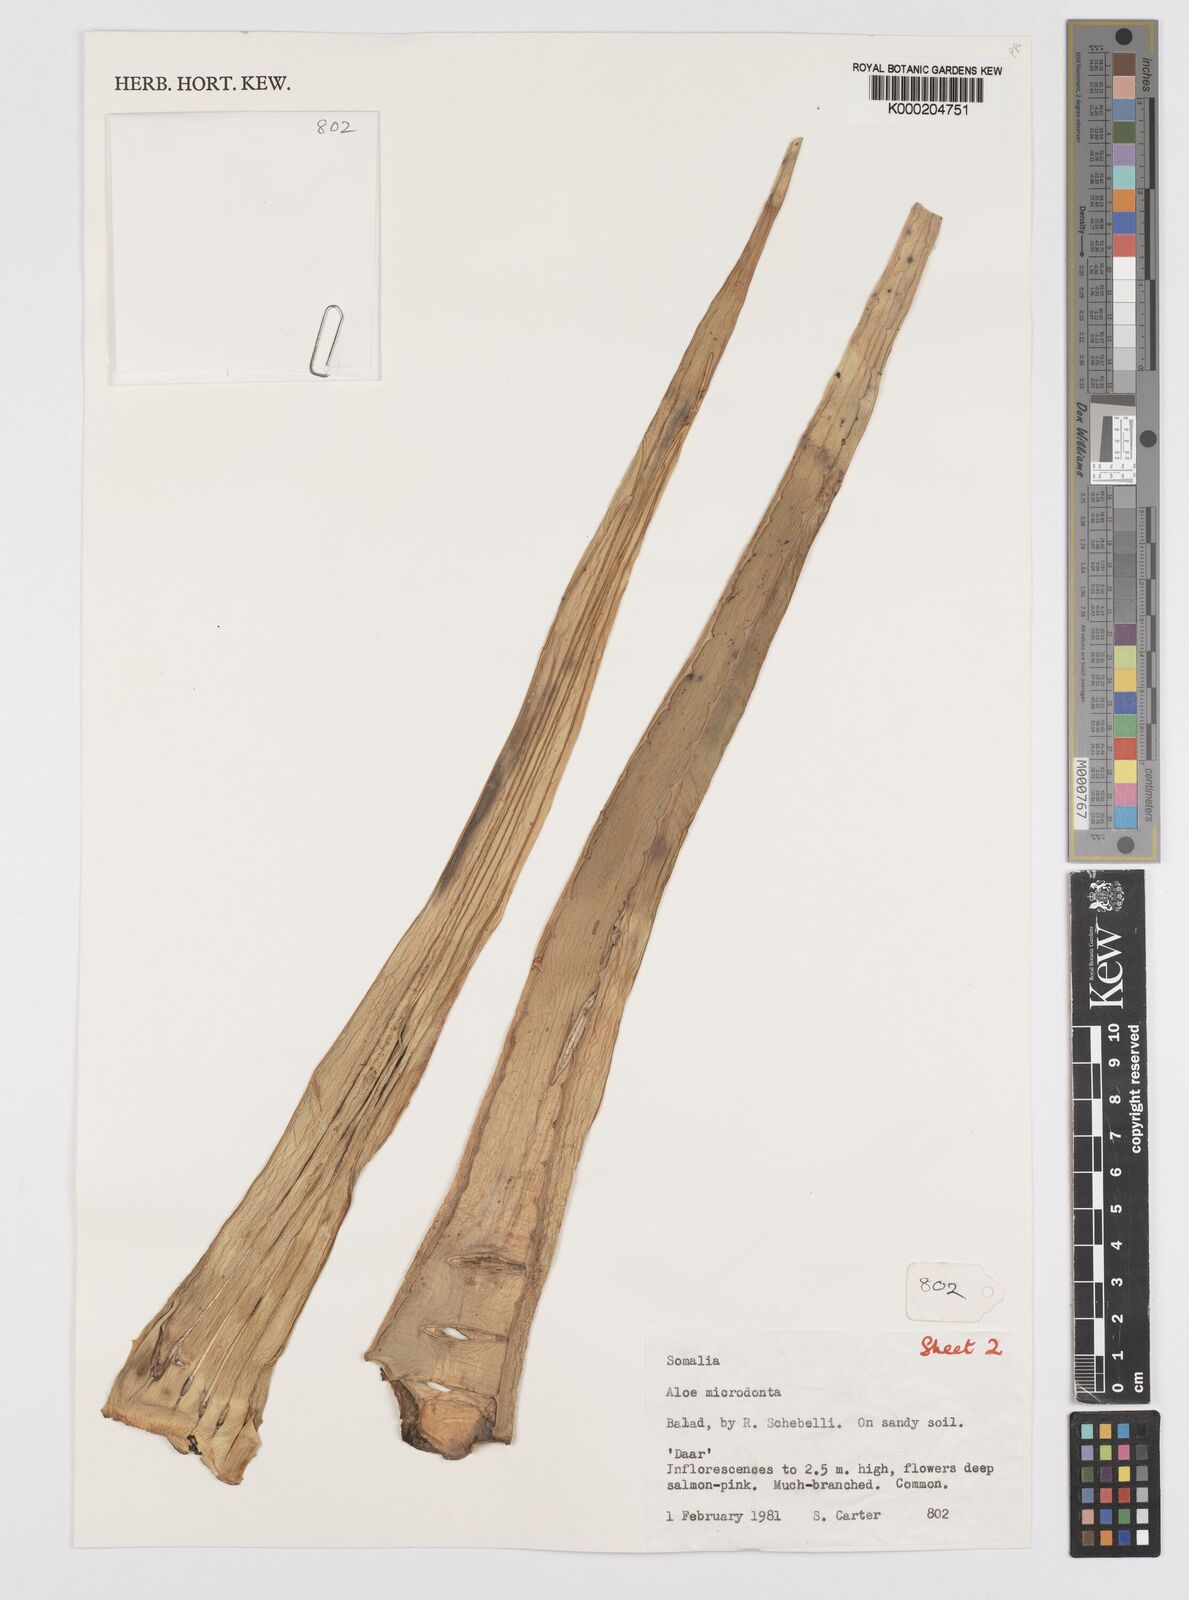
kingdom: Plantae
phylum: Tracheophyta
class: Liliopsida
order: Asparagales
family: Asphodelaceae
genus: Aloe
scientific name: Aloe microdonta
